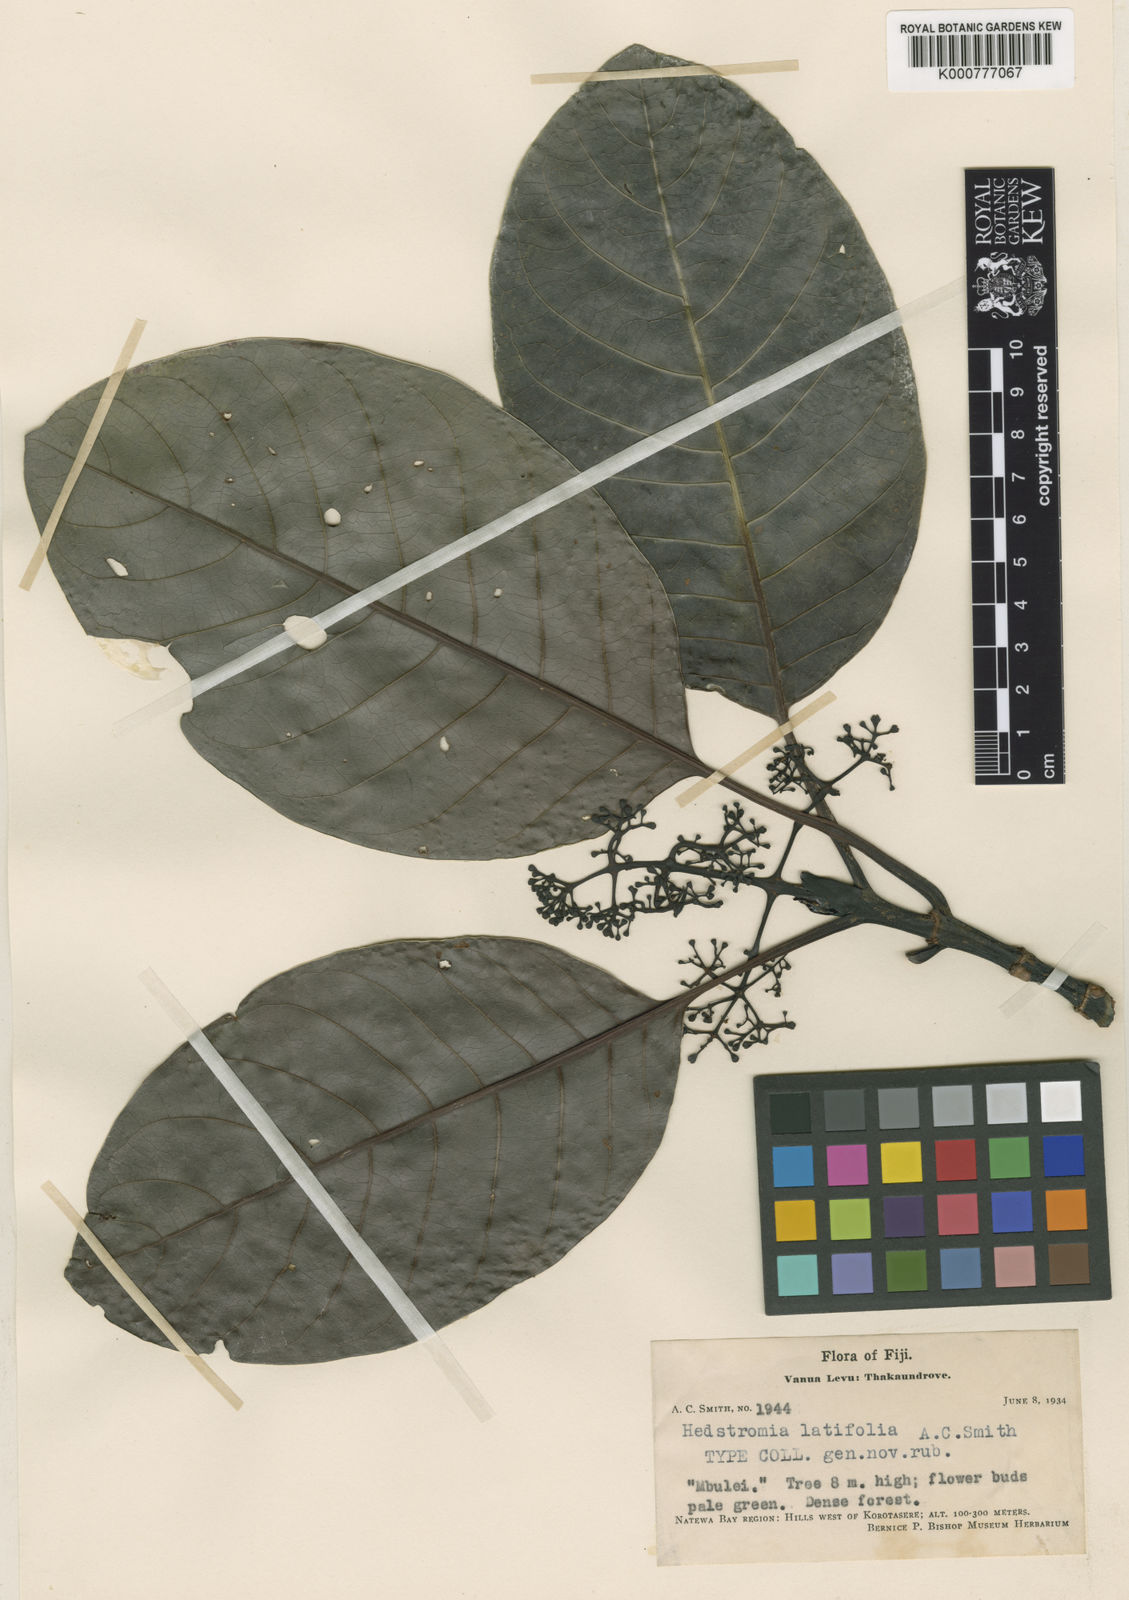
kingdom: Plantae
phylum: Tracheophyta
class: Magnoliopsida
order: Gentianales
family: Rubiaceae
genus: Hedstromia
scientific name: Hedstromia latifolia
